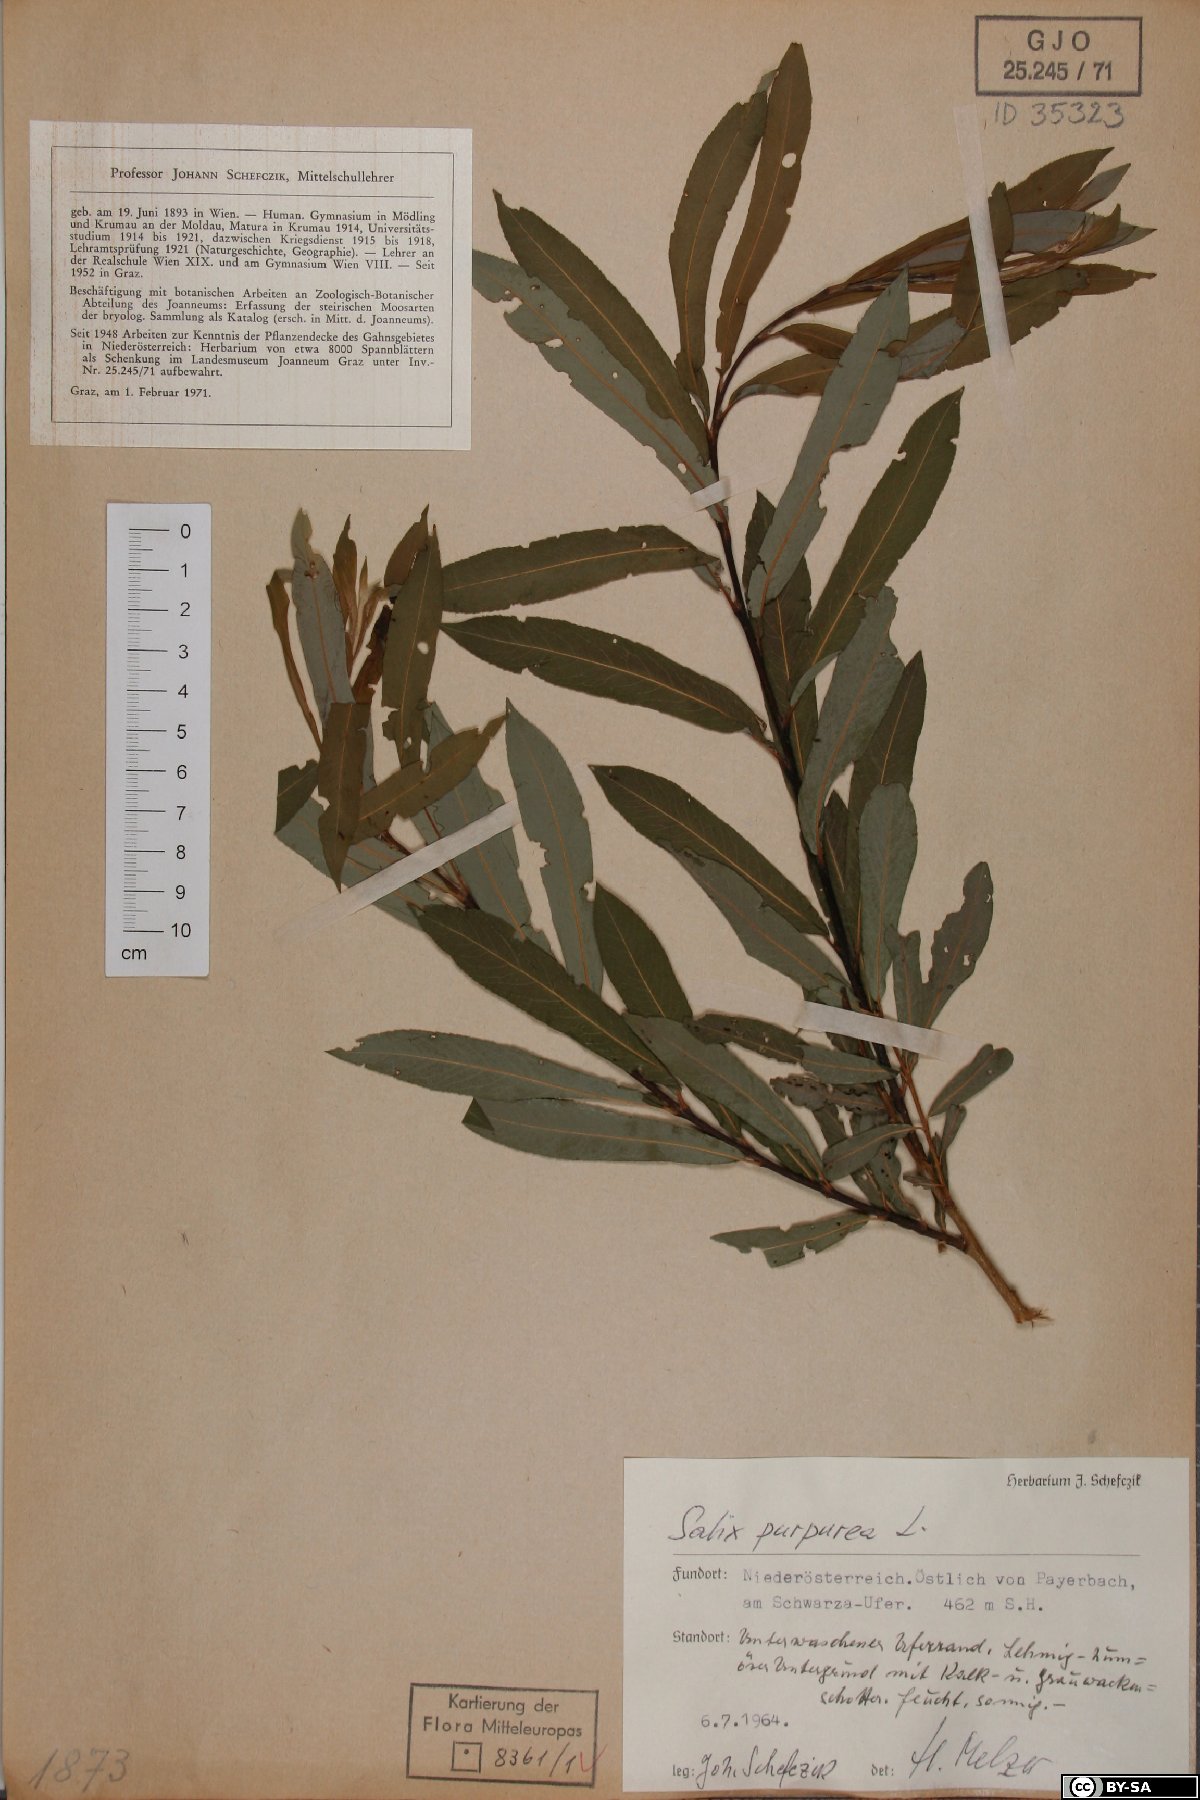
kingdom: Plantae
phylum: Tracheophyta
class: Magnoliopsida
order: Malpighiales
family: Salicaceae
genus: Salix
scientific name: Salix purpurea
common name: Purple willow
